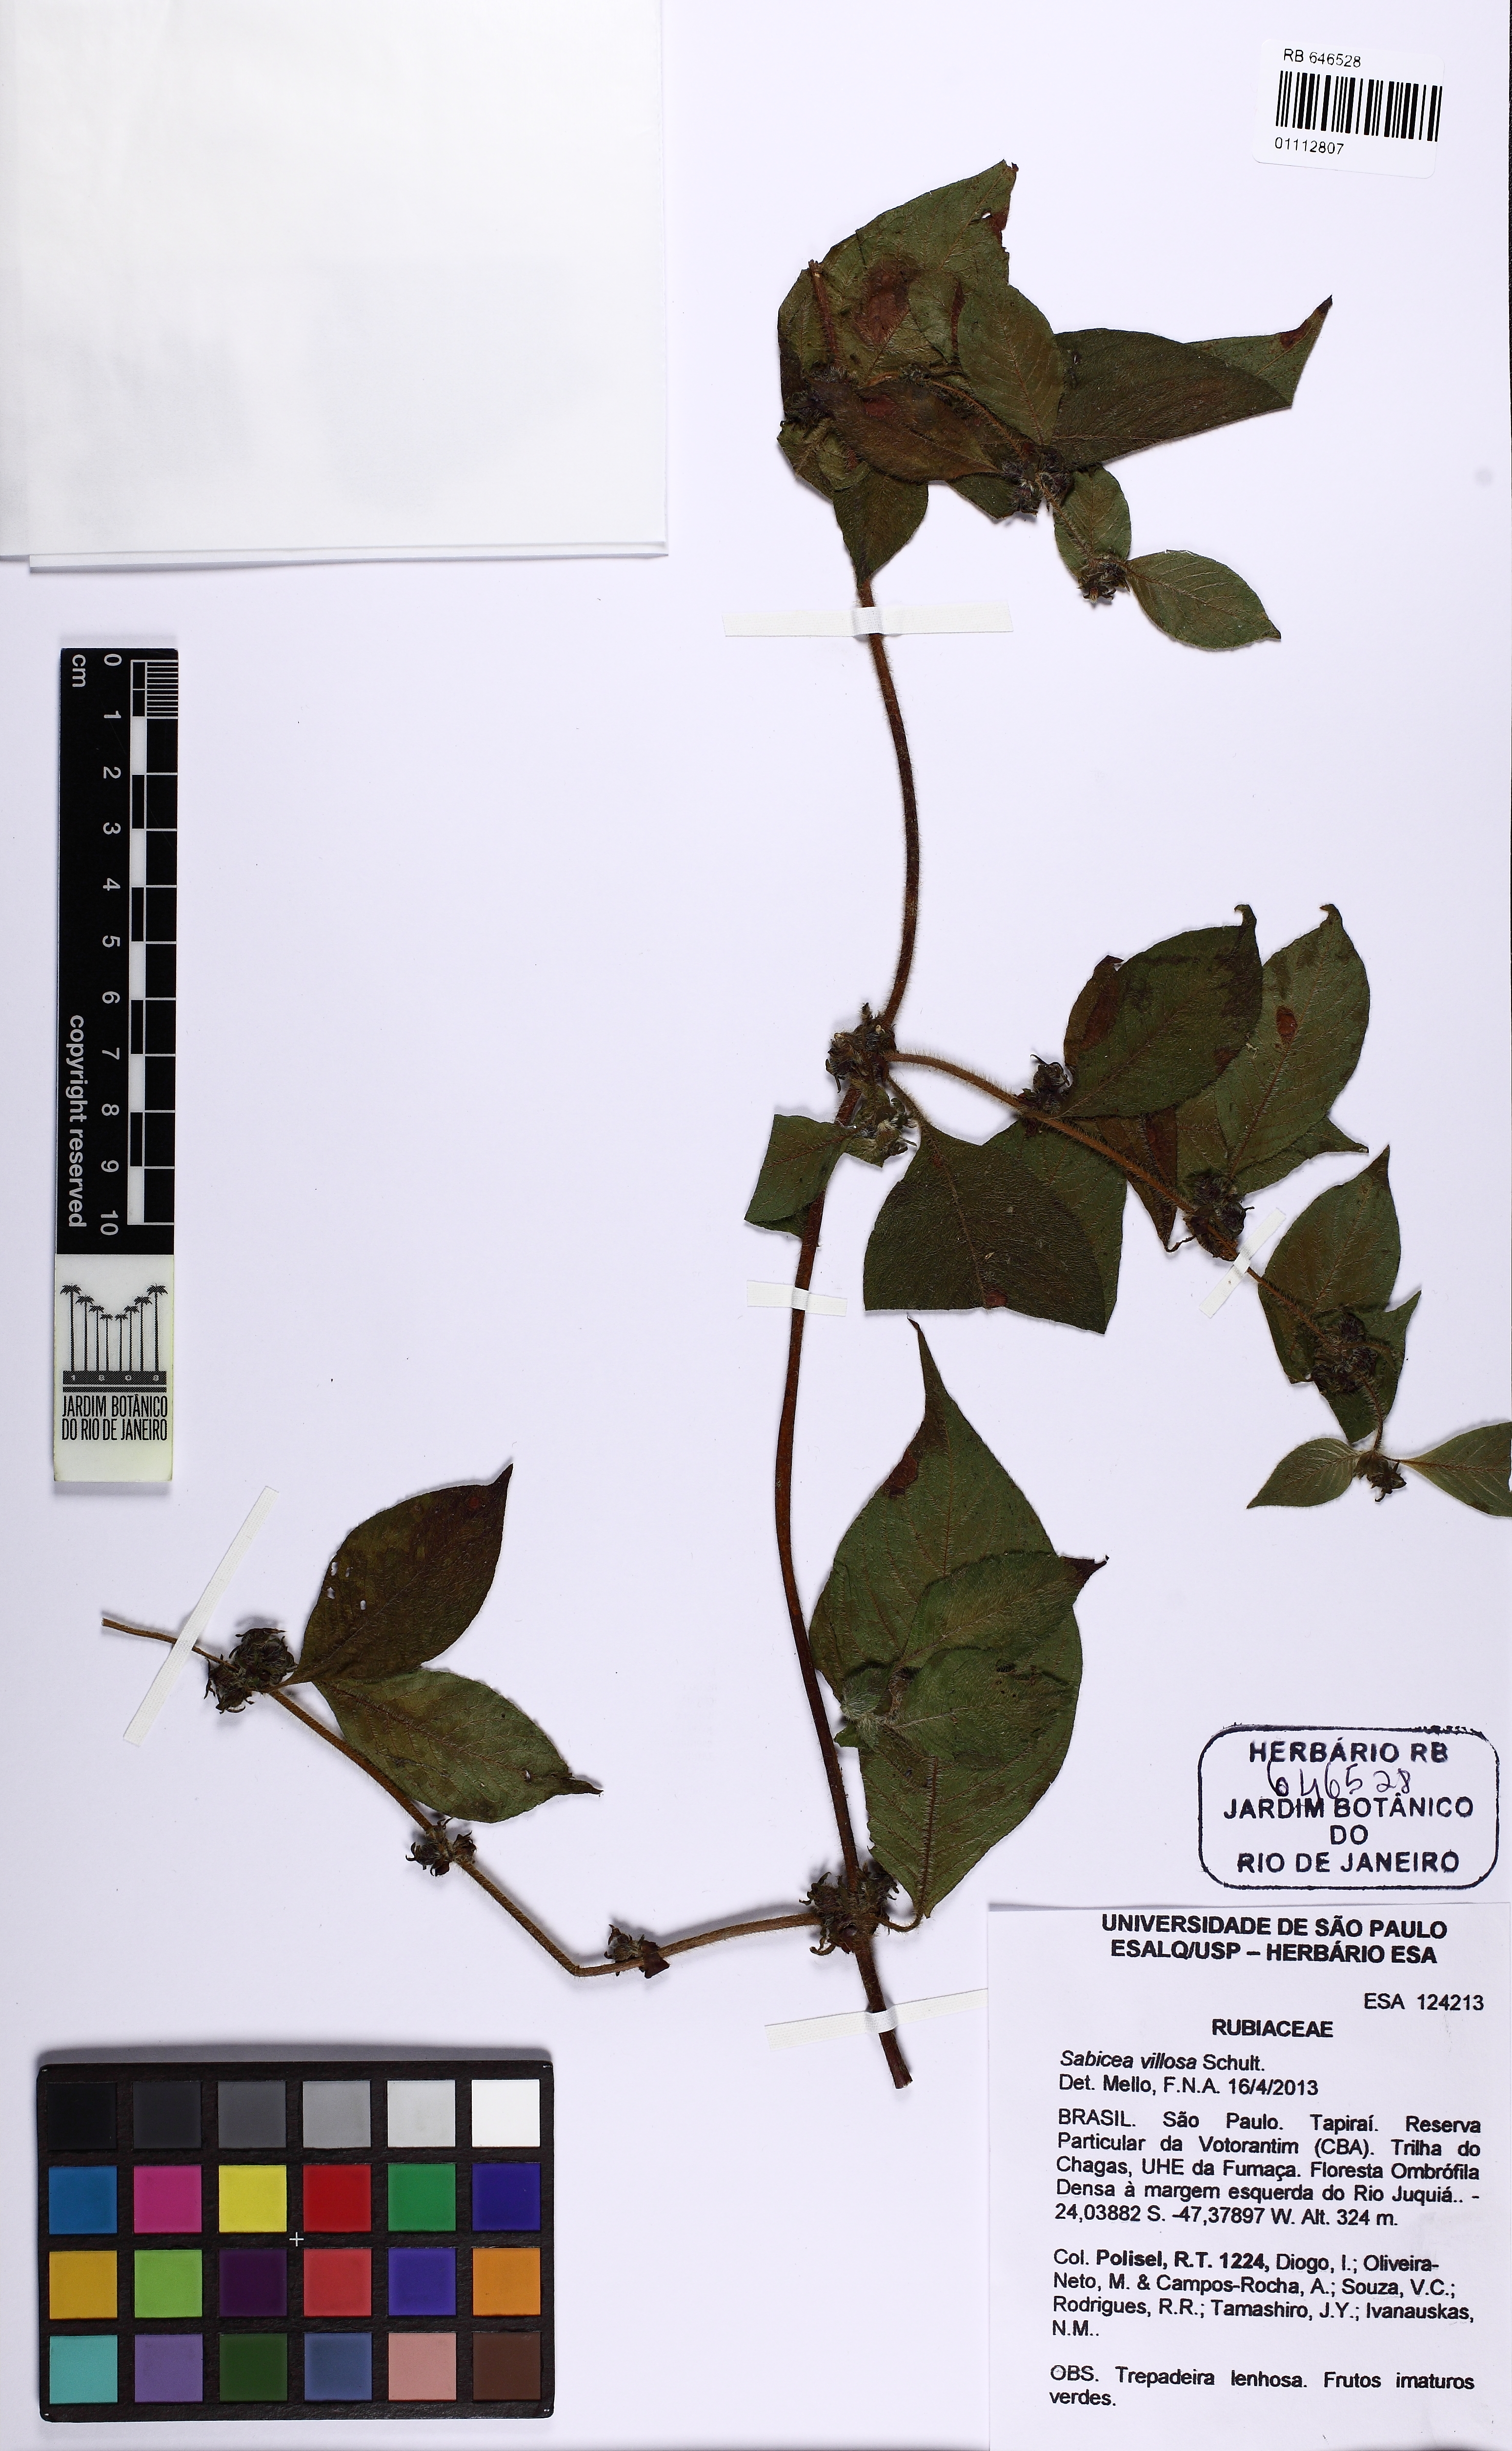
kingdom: Plantae
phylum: Tracheophyta
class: Magnoliopsida
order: Gentianales
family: Rubiaceae
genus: Sabicea
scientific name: Sabicea villosa
